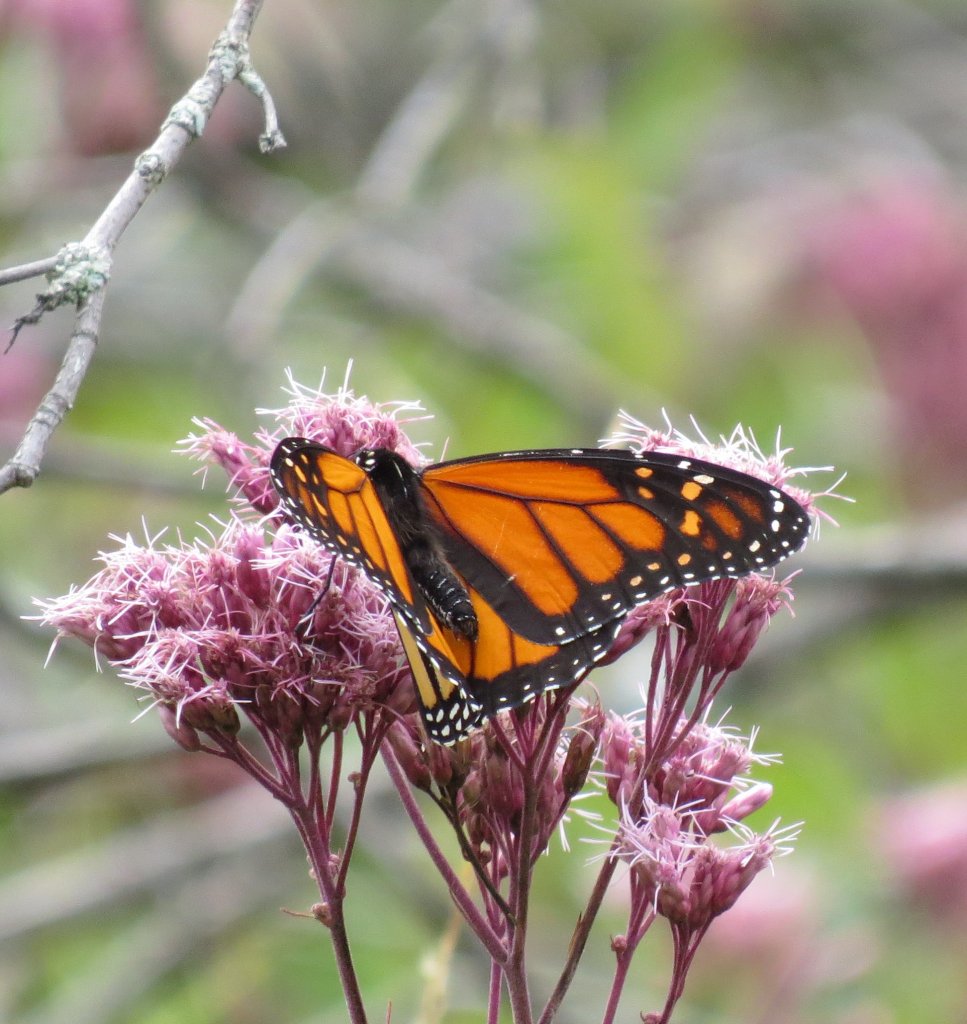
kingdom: Animalia
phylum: Arthropoda
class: Insecta
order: Lepidoptera
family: Nymphalidae
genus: Danaus
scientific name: Danaus plexippus
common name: Monarch
